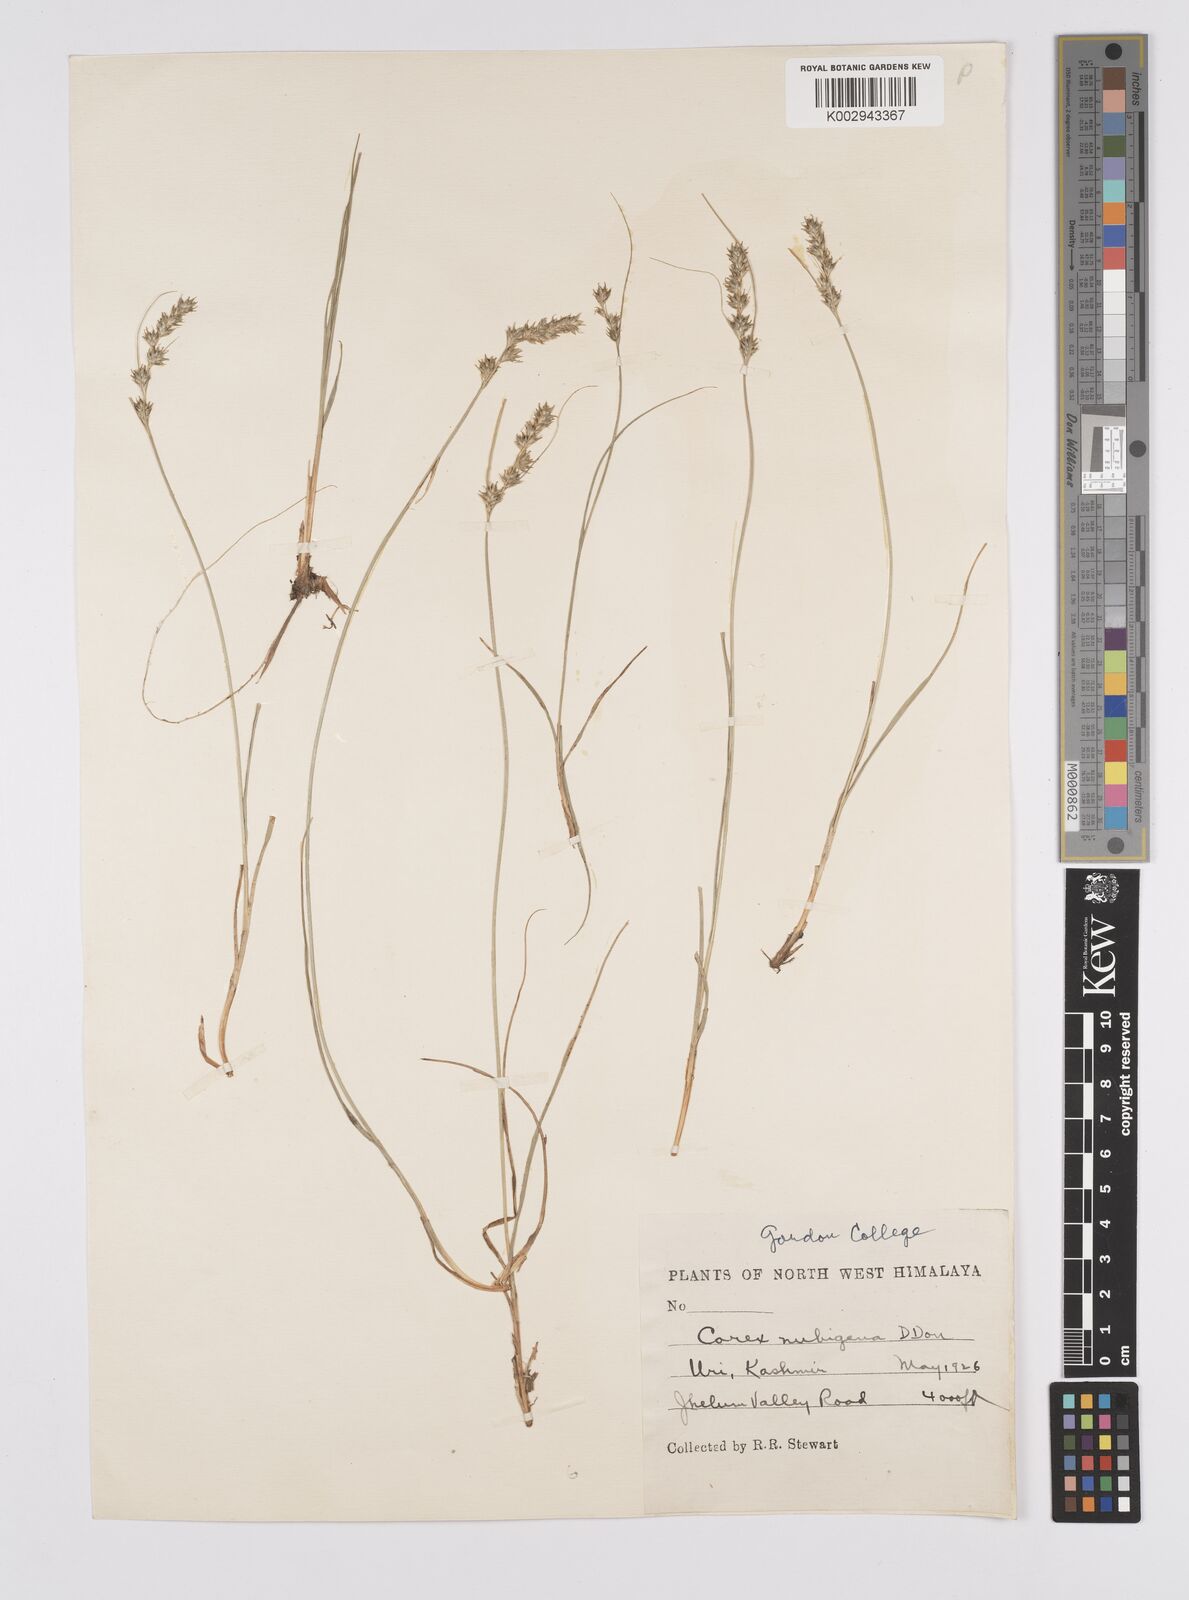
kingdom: Plantae
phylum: Tracheophyta
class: Liliopsida
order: Poales
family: Cyperaceae
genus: Carex
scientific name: Carex nubigena
